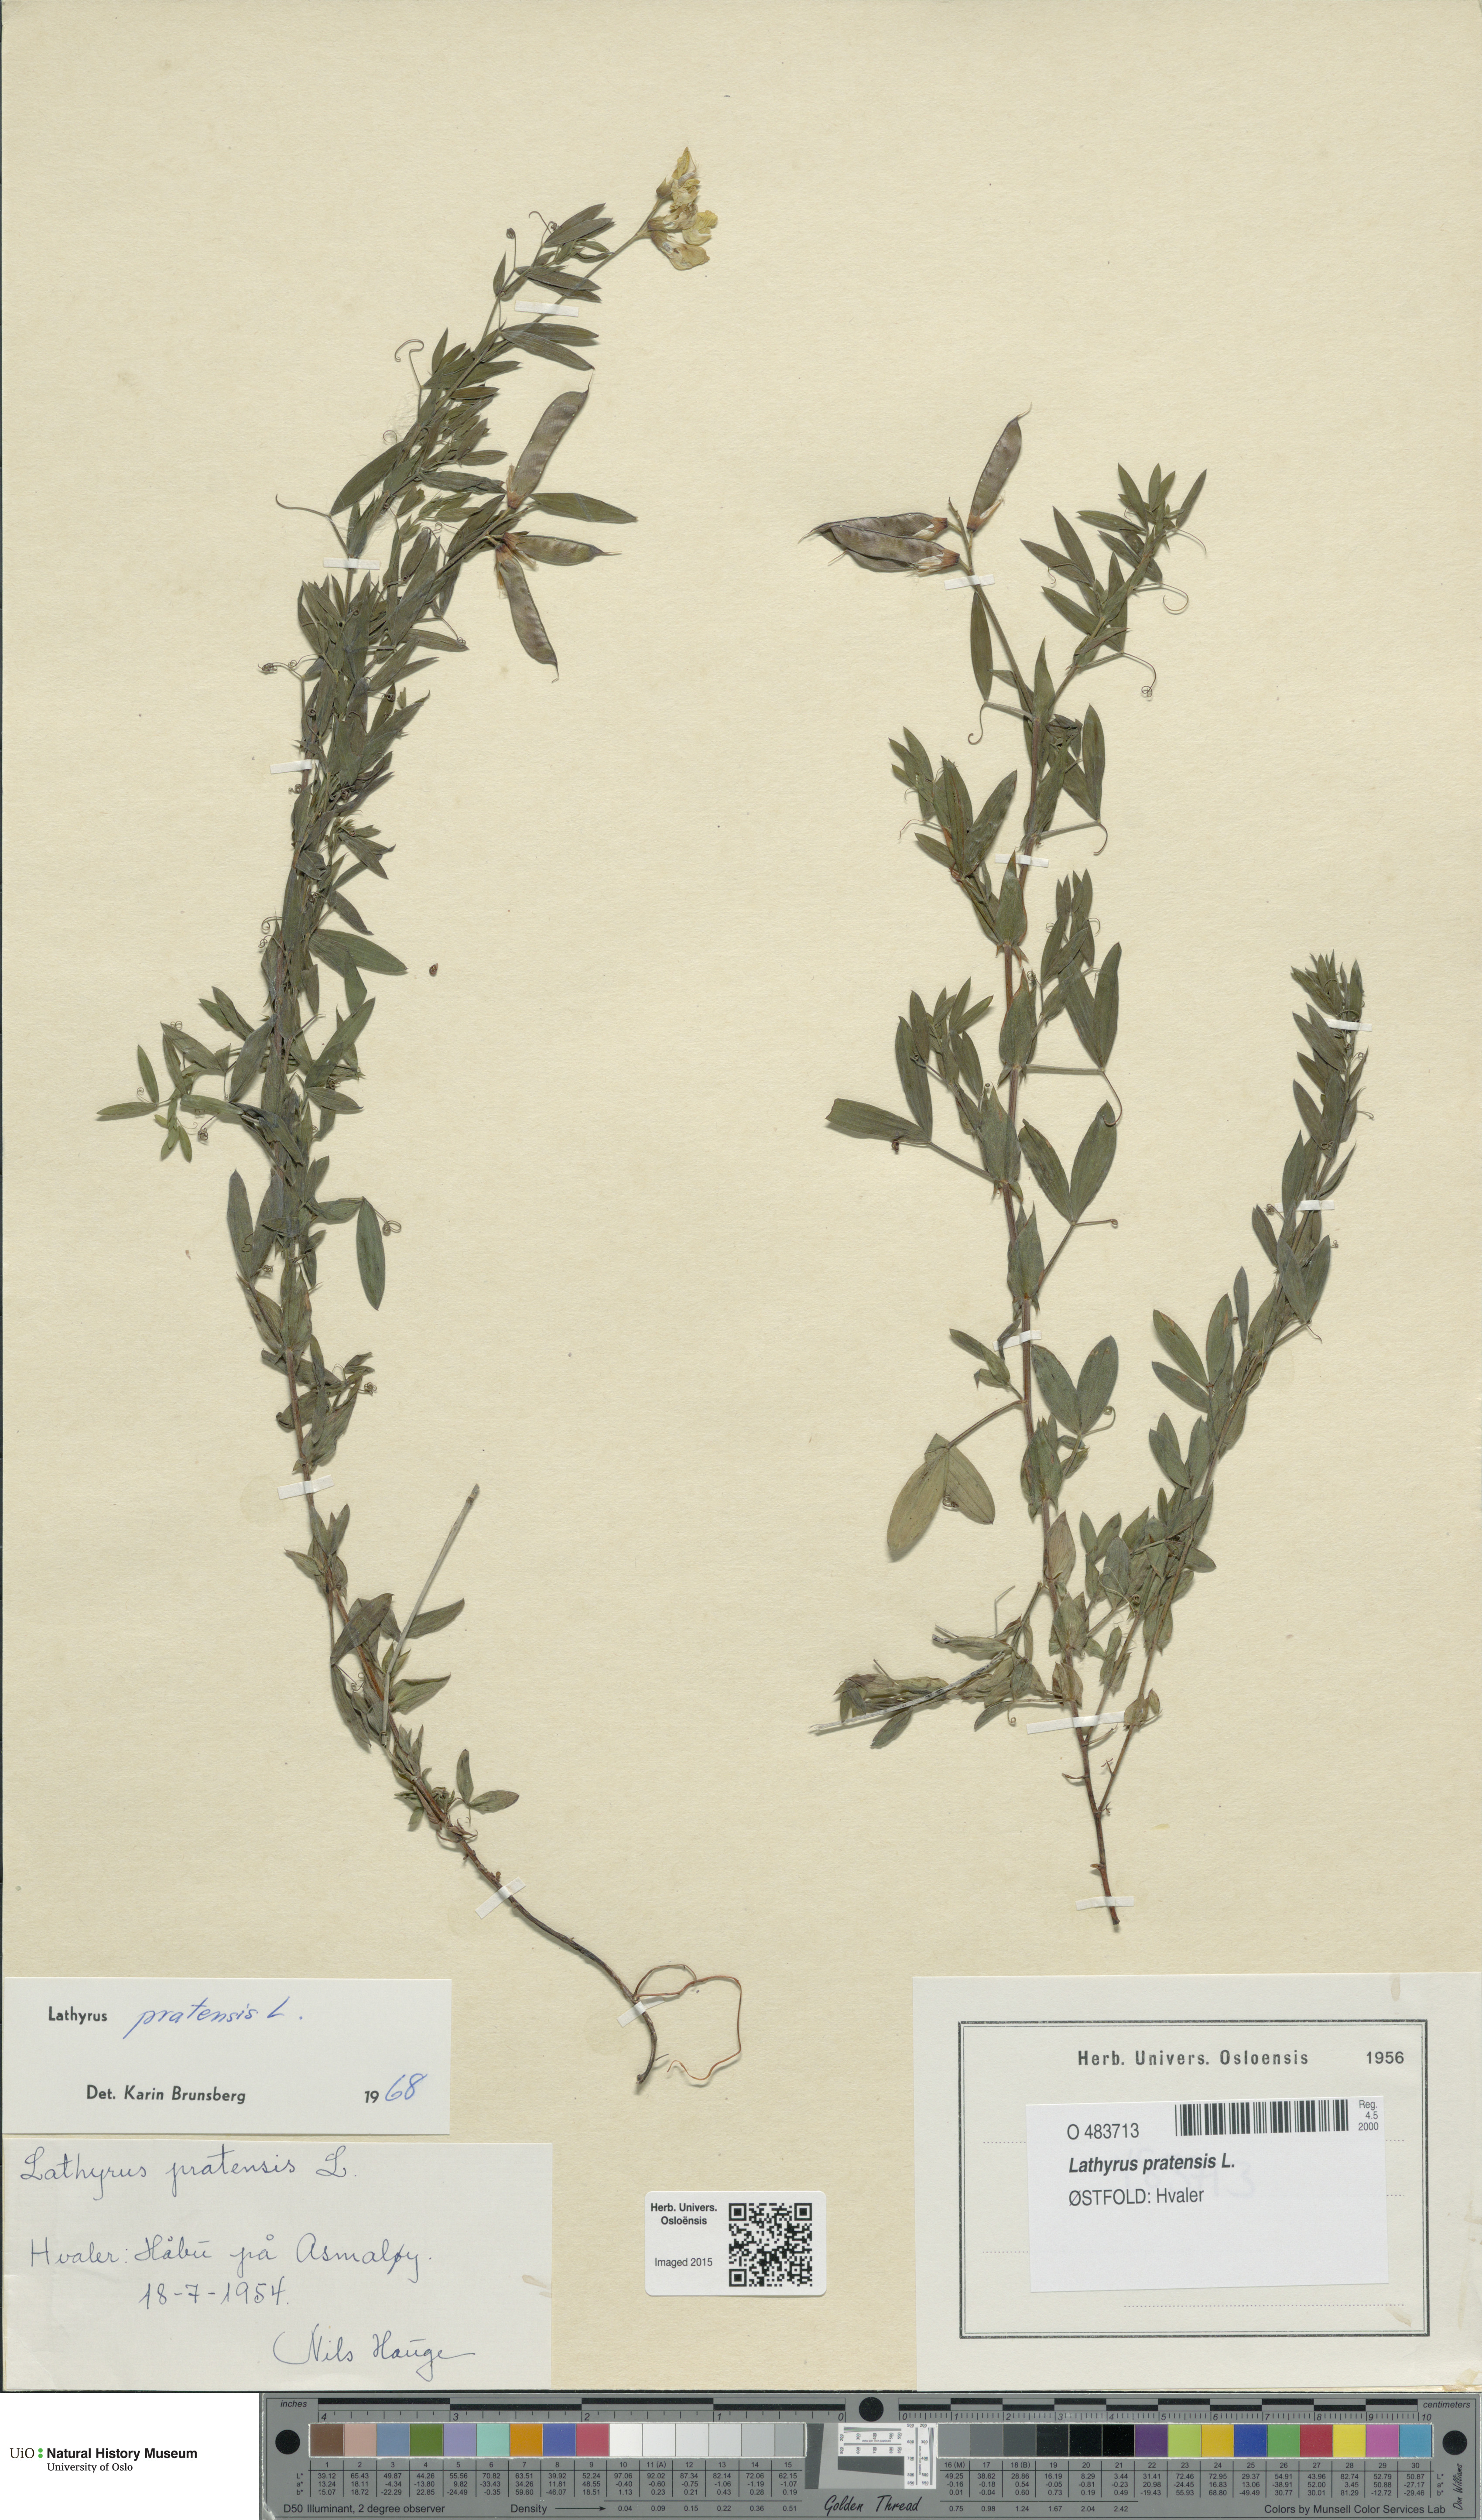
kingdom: Plantae
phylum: Tracheophyta
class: Magnoliopsida
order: Fabales
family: Fabaceae
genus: Lathyrus
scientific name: Lathyrus pratensis
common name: Meadow vetchling
